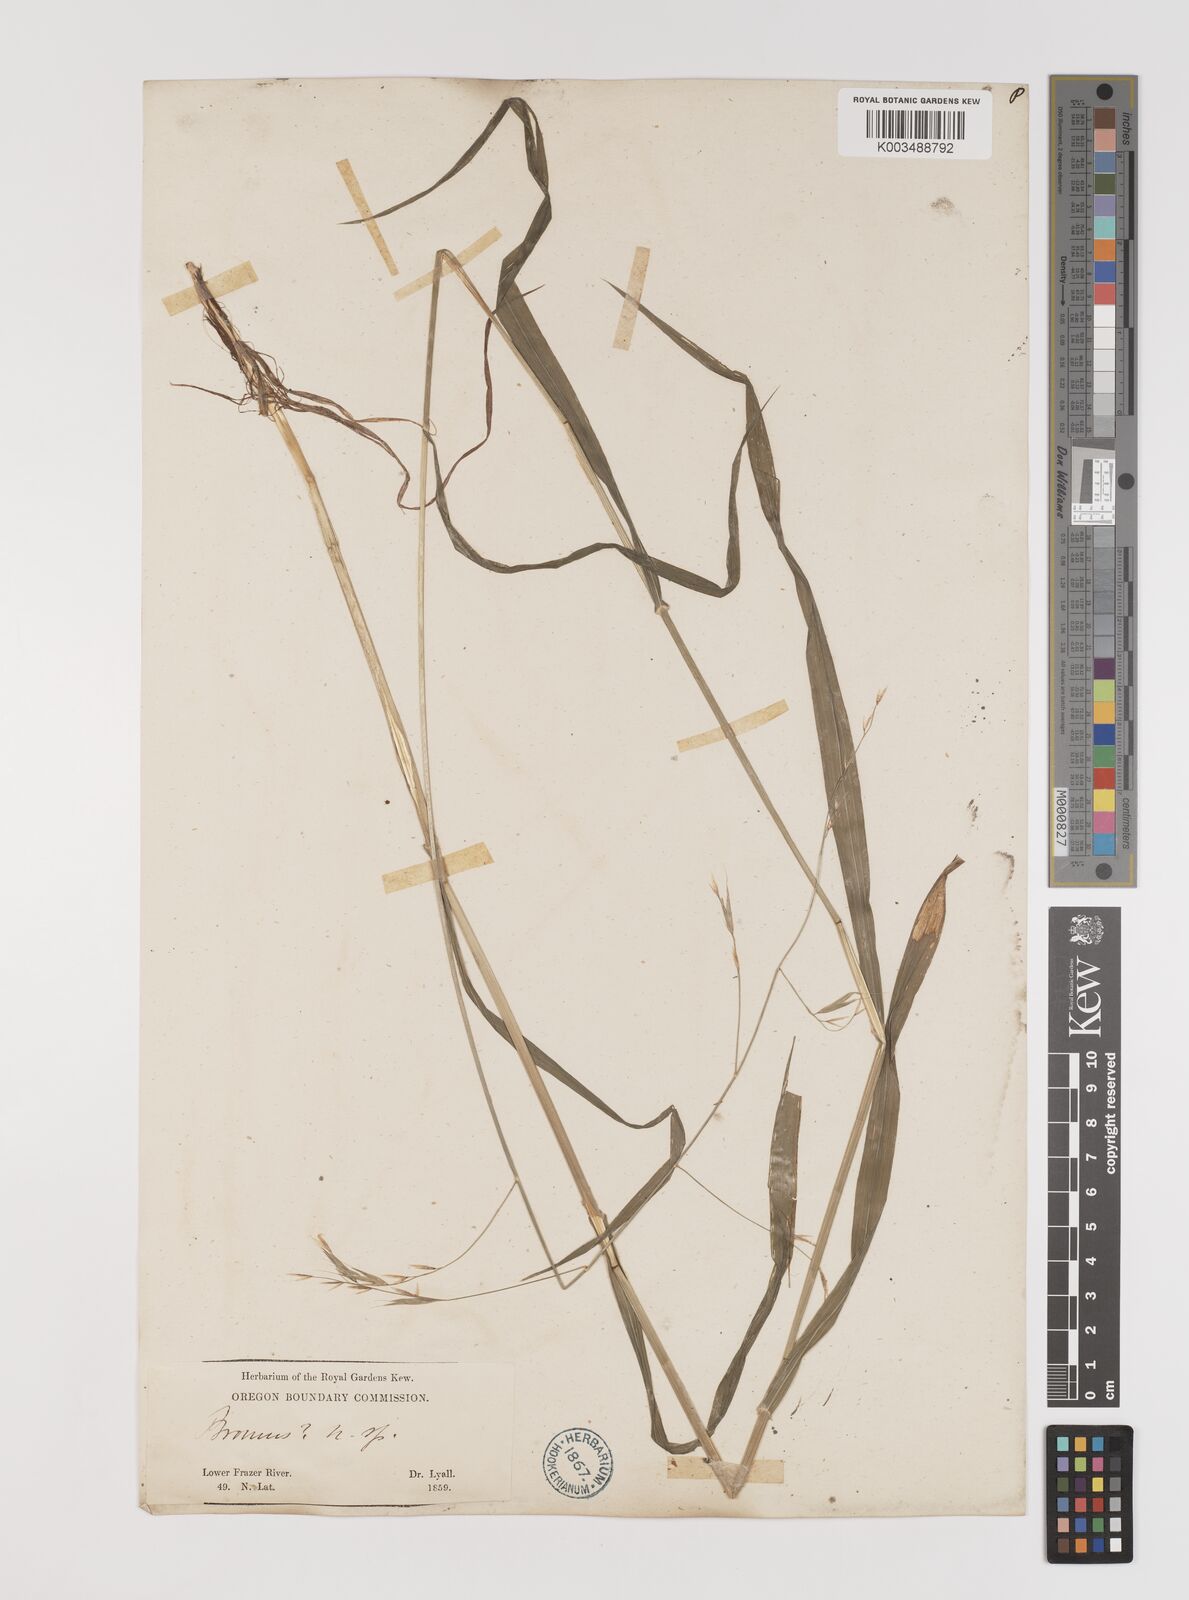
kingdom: Plantae
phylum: Tracheophyta
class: Liliopsida
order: Poales
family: Poaceae
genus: Bromus
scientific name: Bromus
